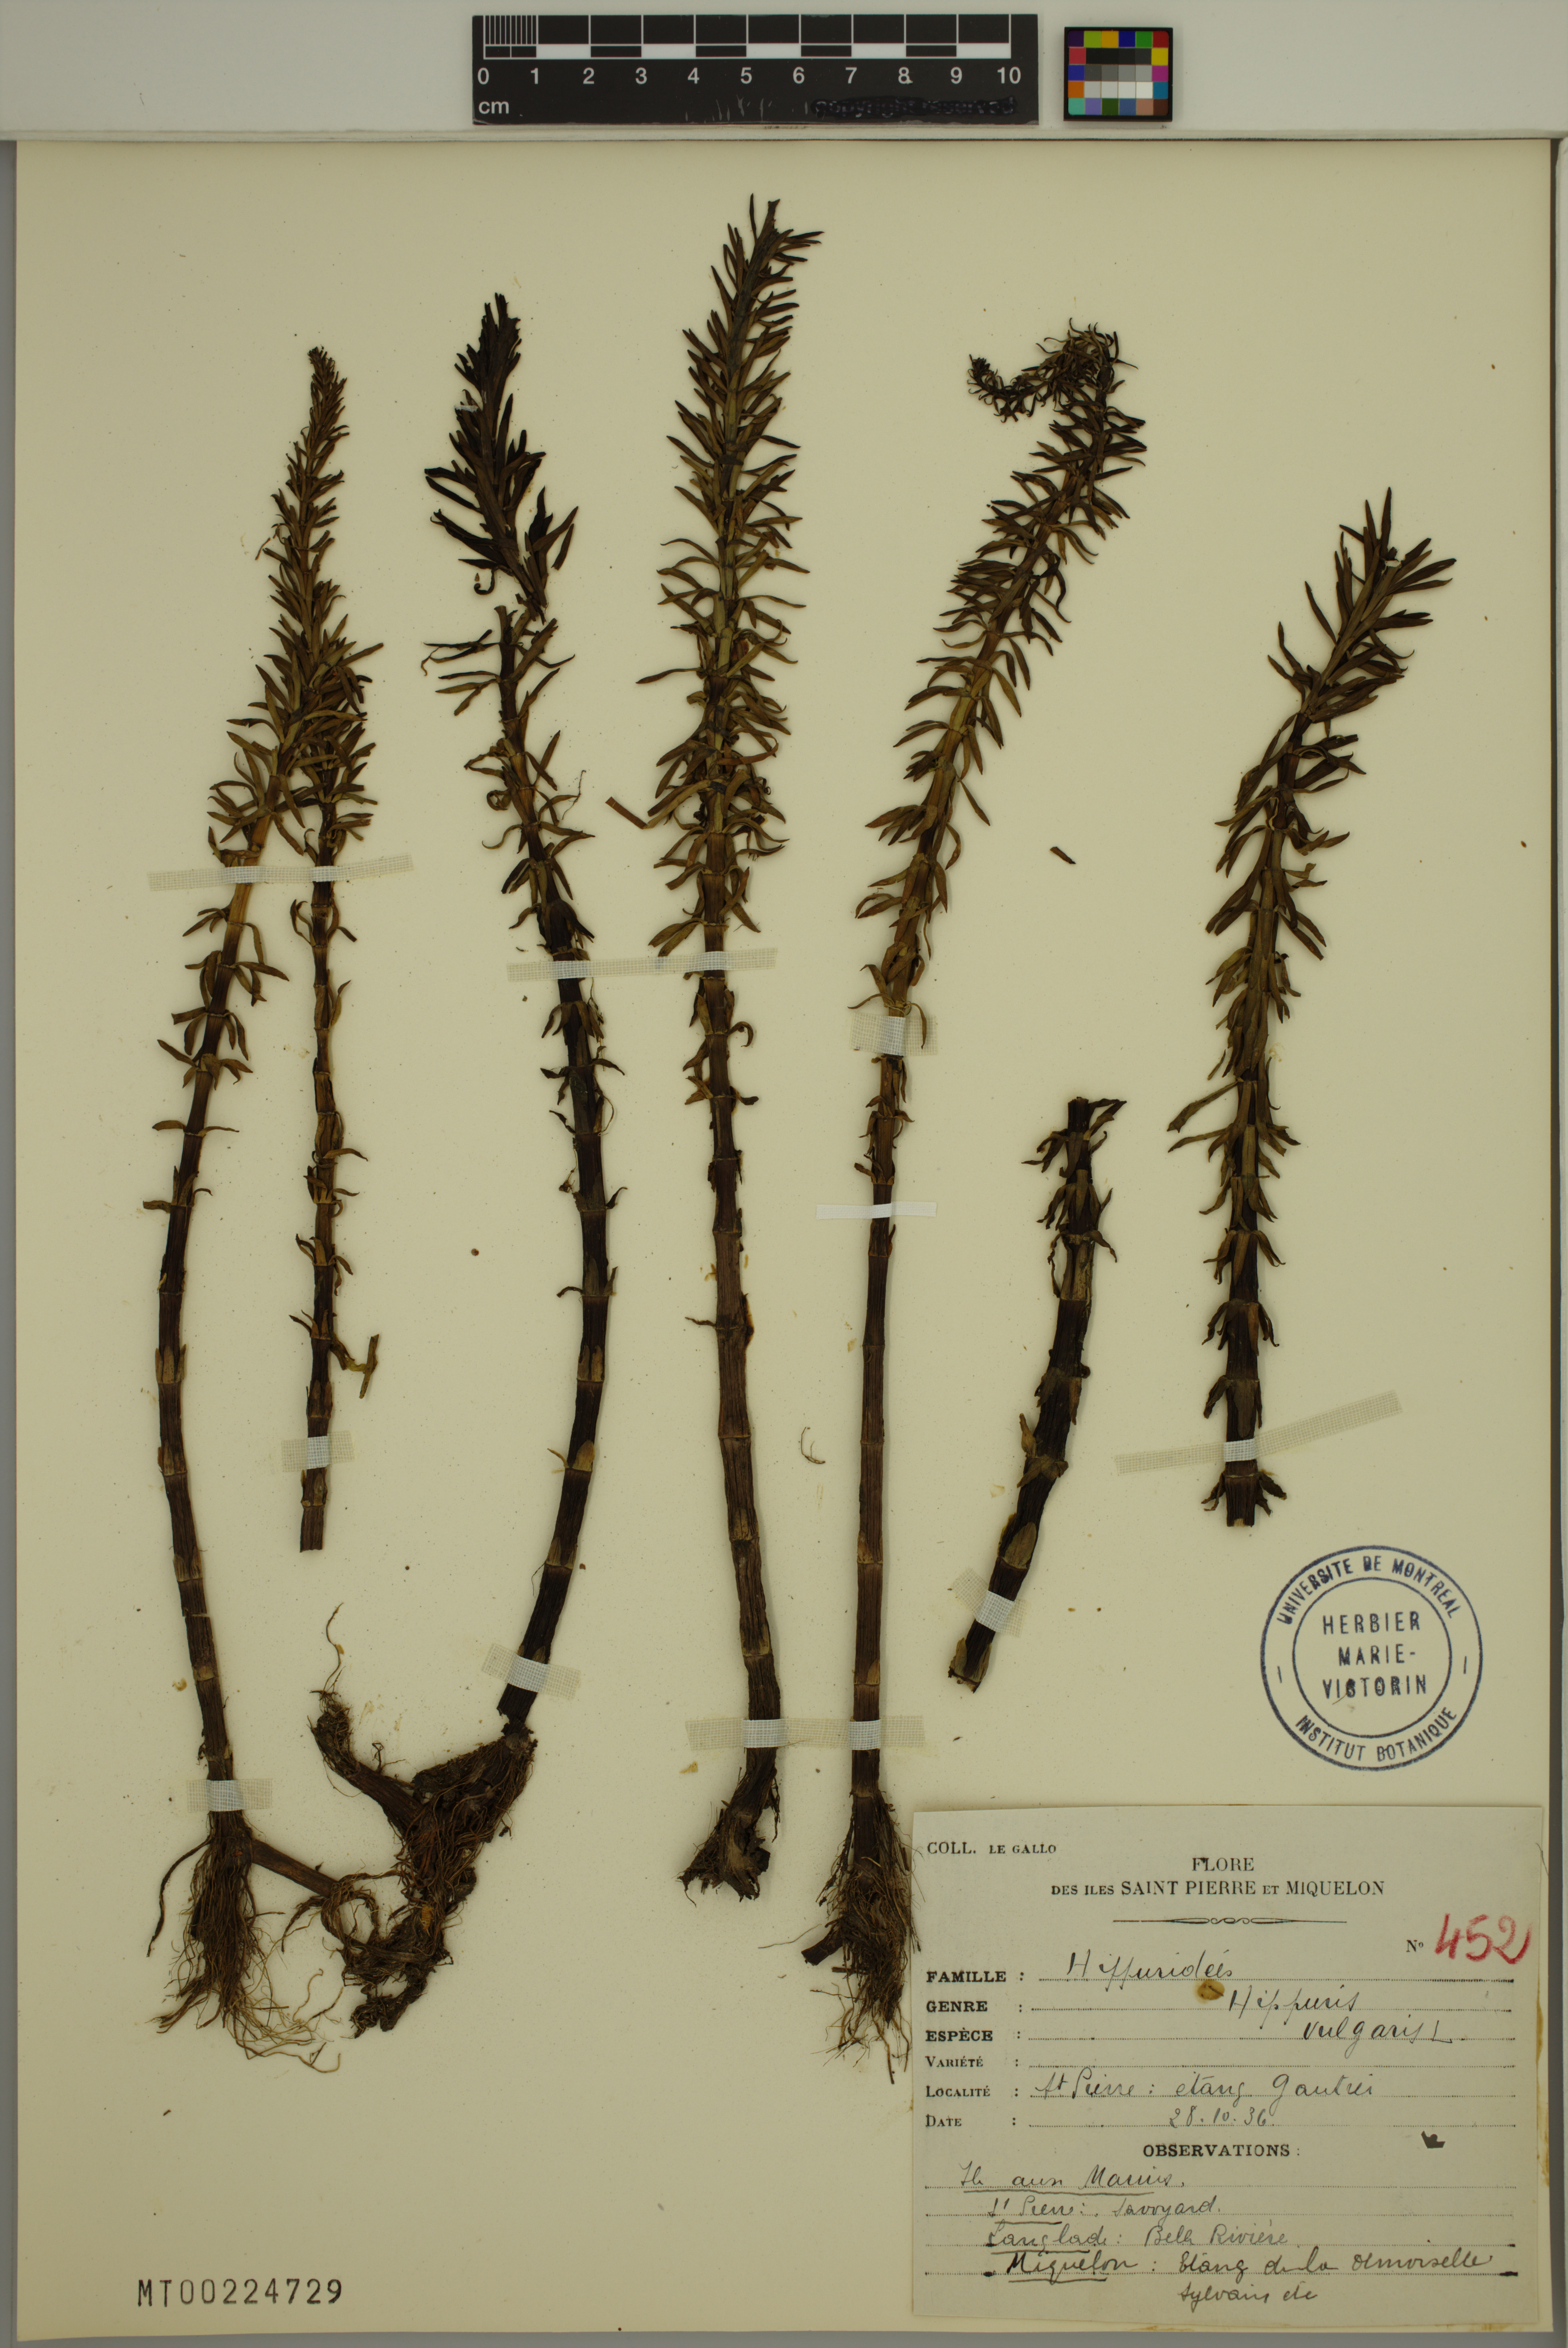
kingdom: Plantae
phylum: Tracheophyta
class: Magnoliopsida
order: Lamiales
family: Plantaginaceae
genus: Hippuris
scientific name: Hippuris vulgaris
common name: Mare's-tail
